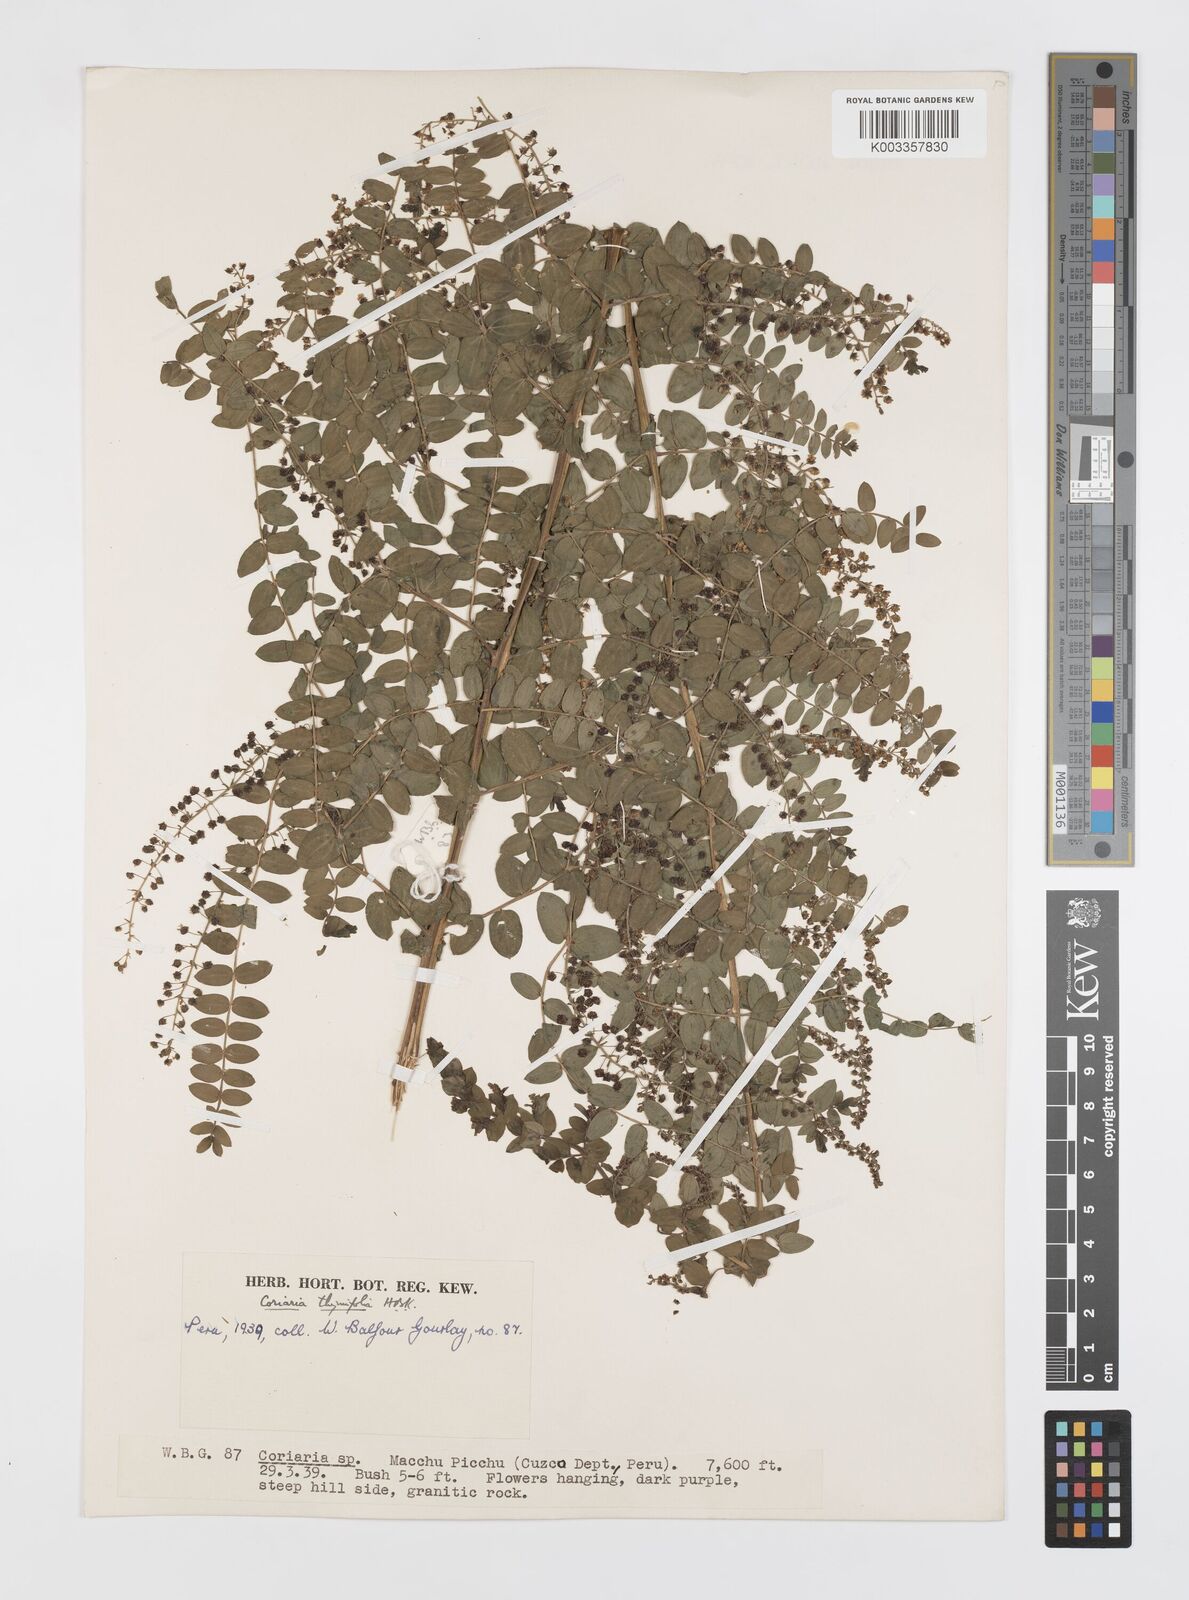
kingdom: Plantae
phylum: Tracheophyta
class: Magnoliopsida
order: Cucurbitales
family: Coriariaceae
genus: Coriaria
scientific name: Coriaria microphylla
